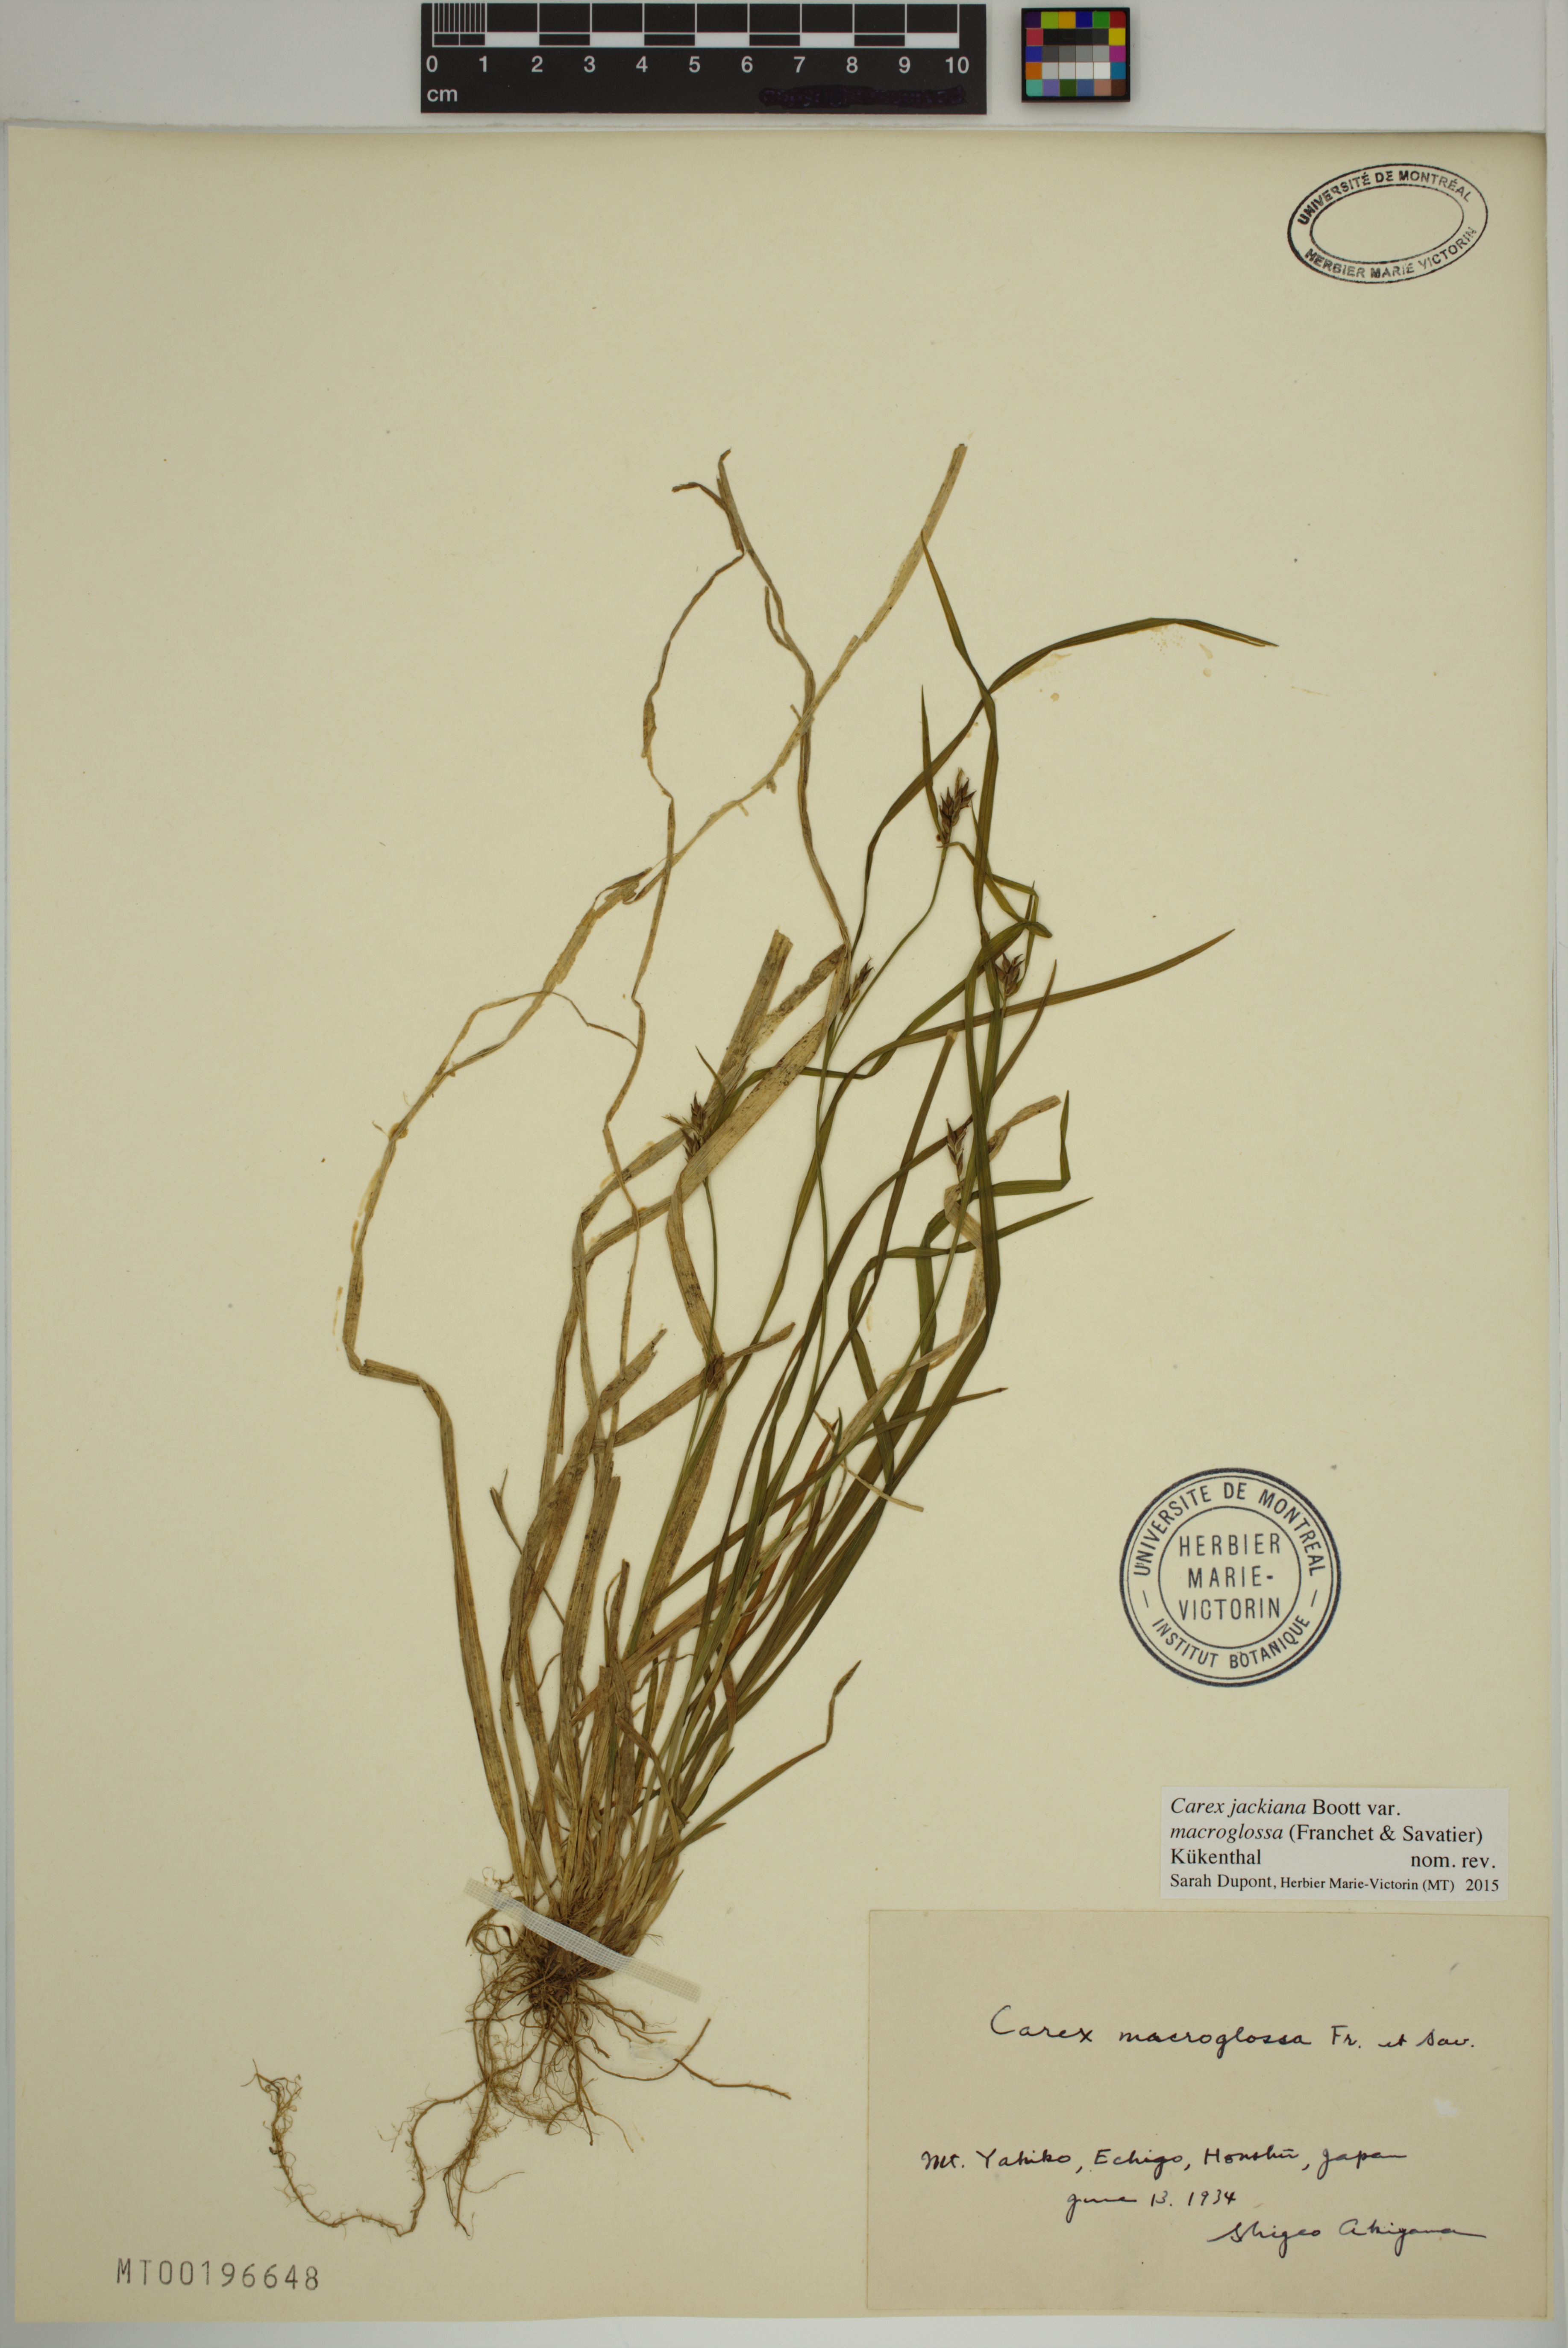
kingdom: Plantae
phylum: Tracheophyta
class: Liliopsida
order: Poales
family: Cyperaceae
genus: Carex
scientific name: Carex macroglossa
